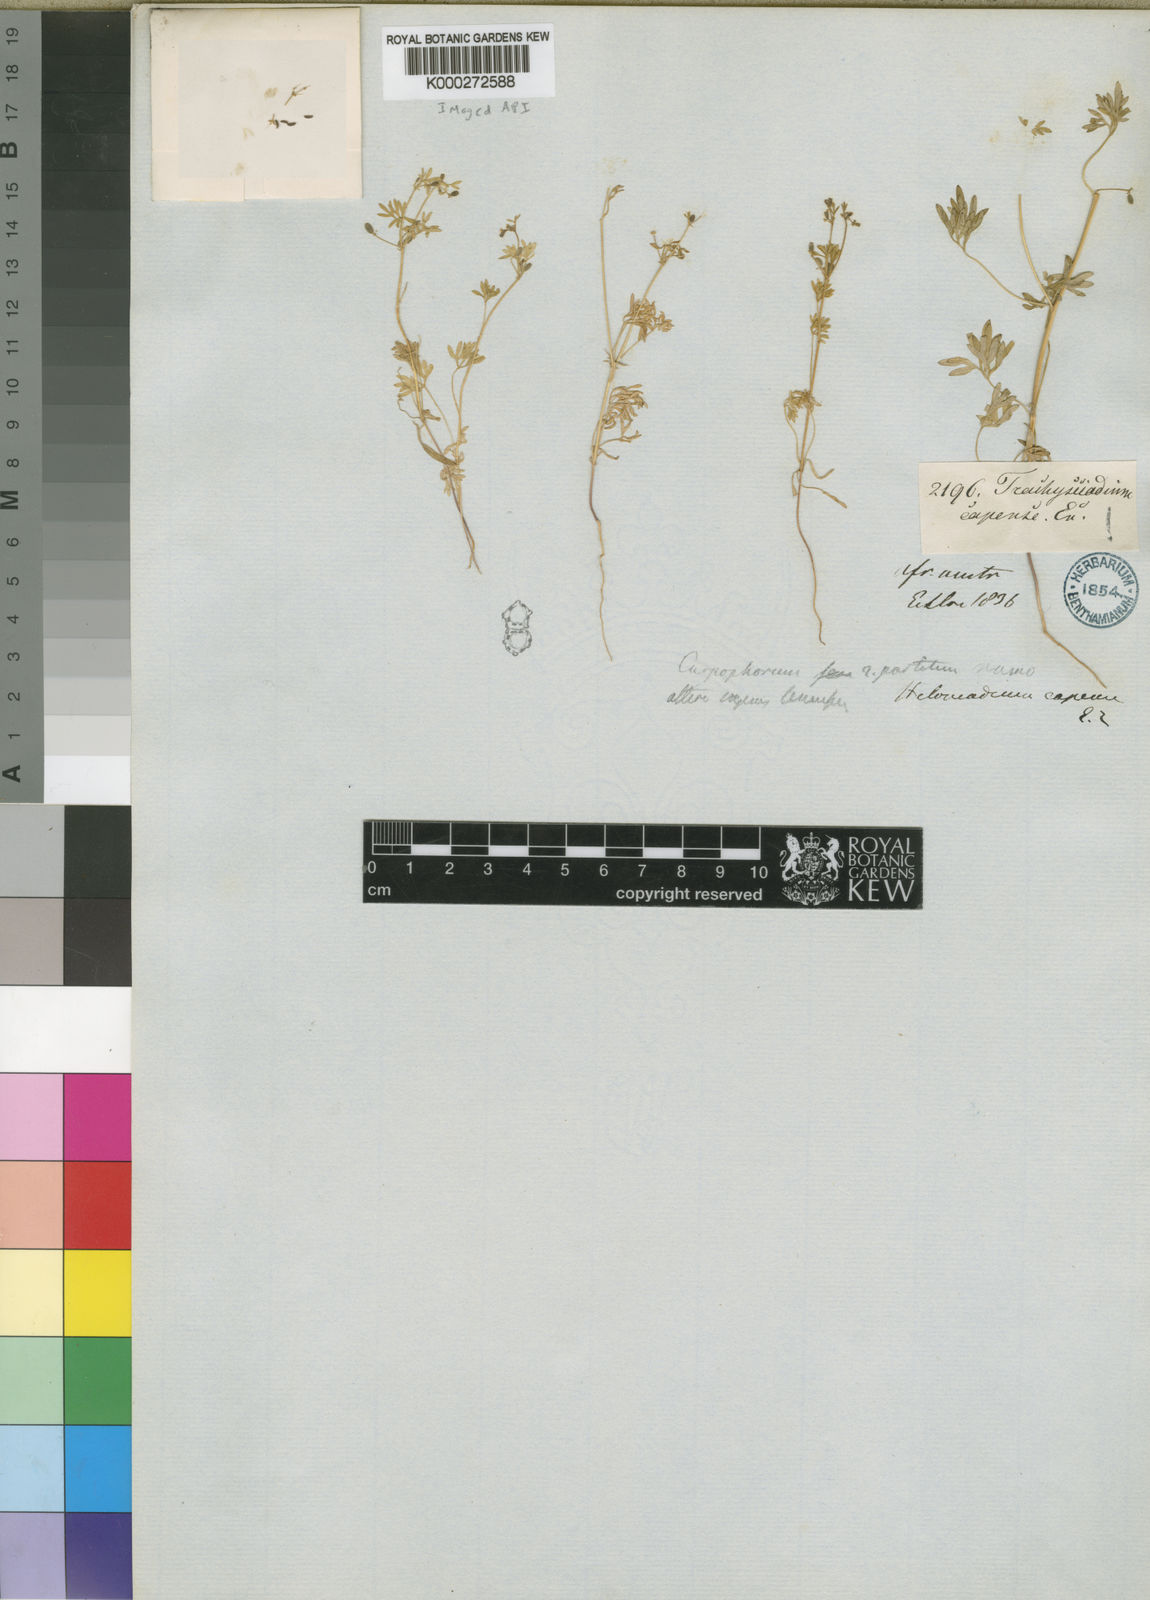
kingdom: Plantae
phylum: Tracheophyta
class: Magnoliopsida
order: Apiales
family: Apiaceae
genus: Ezosciadium
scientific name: Ezosciadium capense
